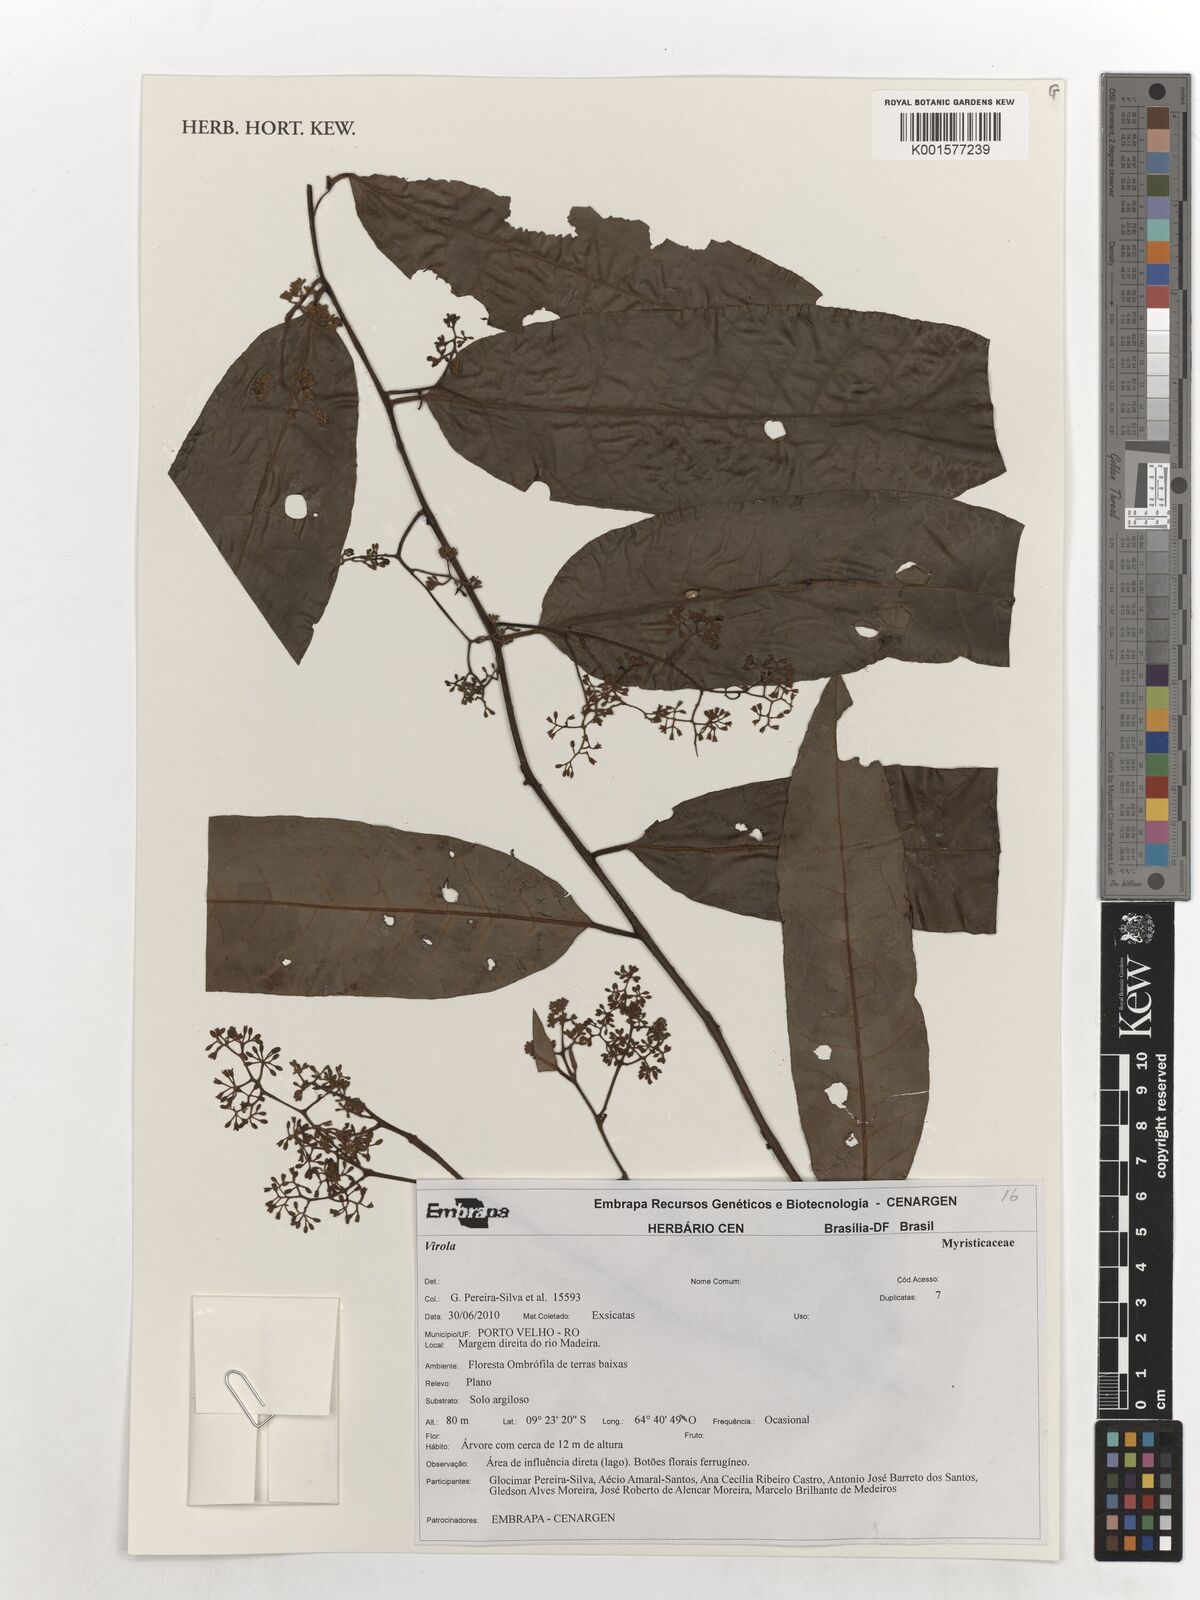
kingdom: Plantae
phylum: Tracheophyta
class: Magnoliopsida
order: Magnoliales
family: Myristicaceae
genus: Virola
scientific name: Virola
